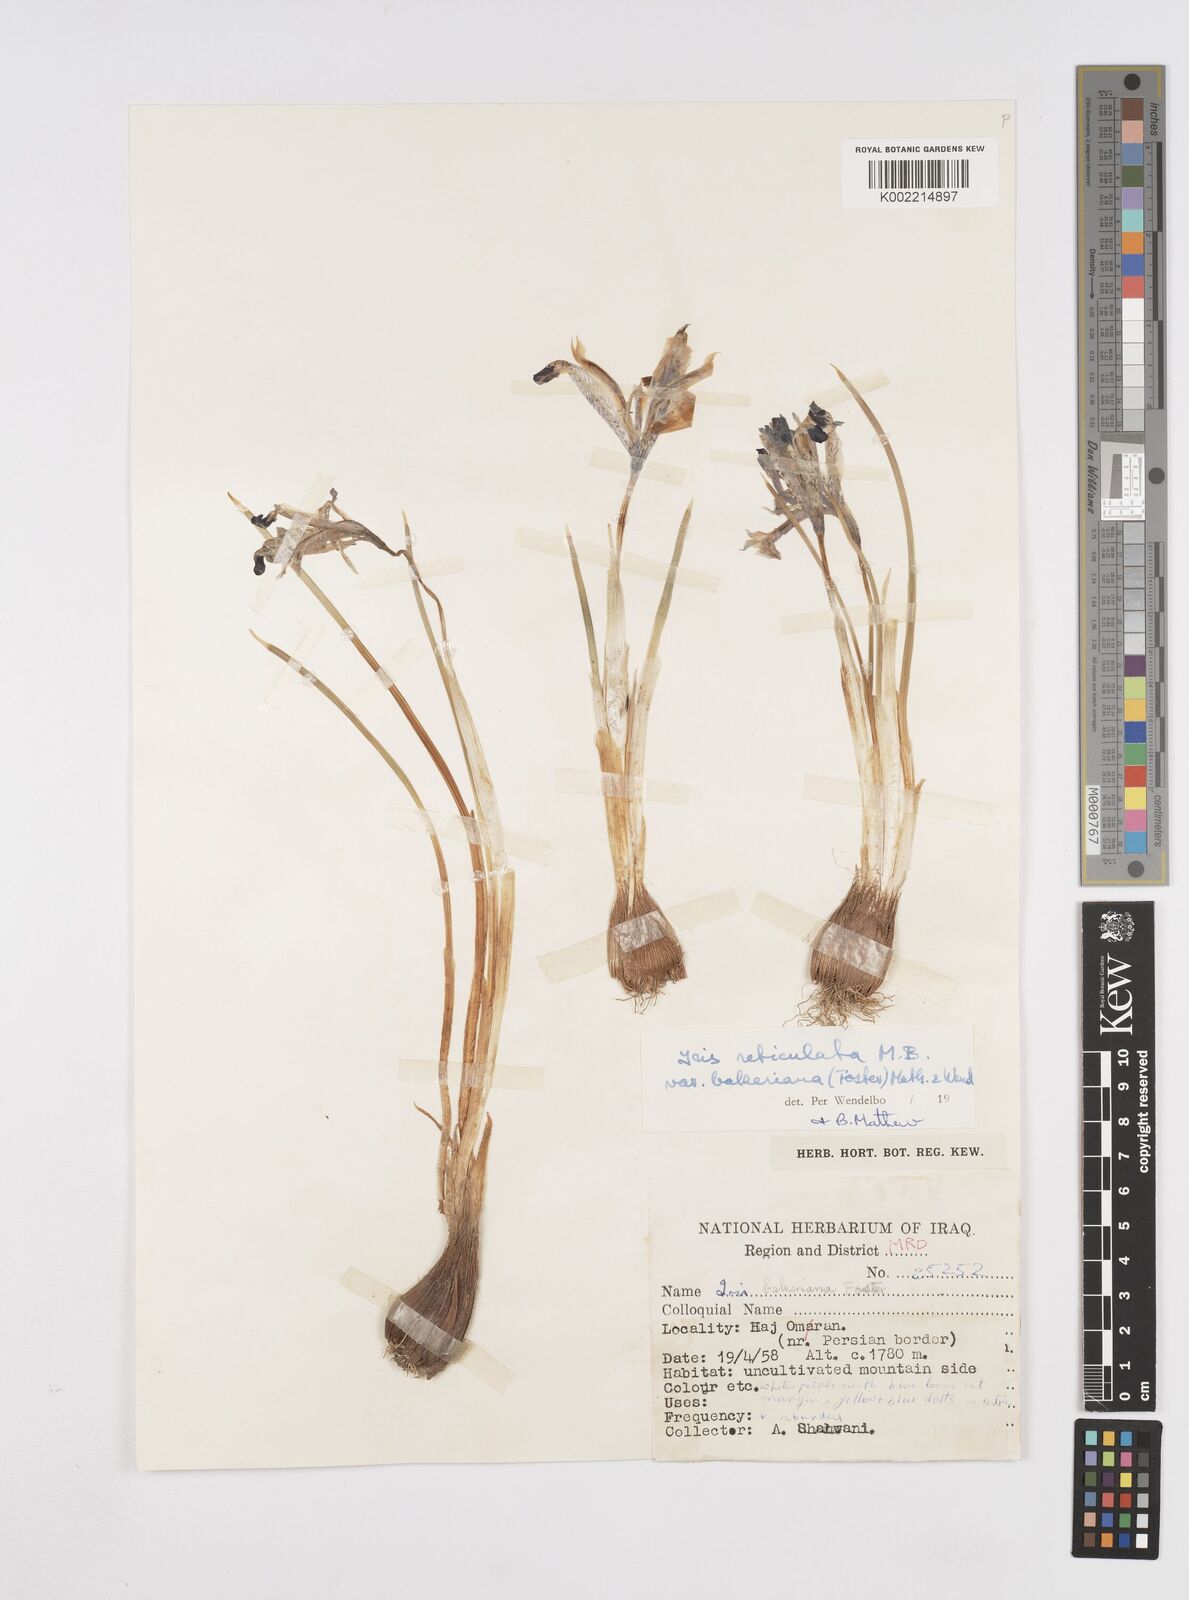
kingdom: Plantae
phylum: Tracheophyta
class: Liliopsida
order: Asparagales
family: Iridaceae
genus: Iris
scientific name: Iris reticulata
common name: Netted iris
